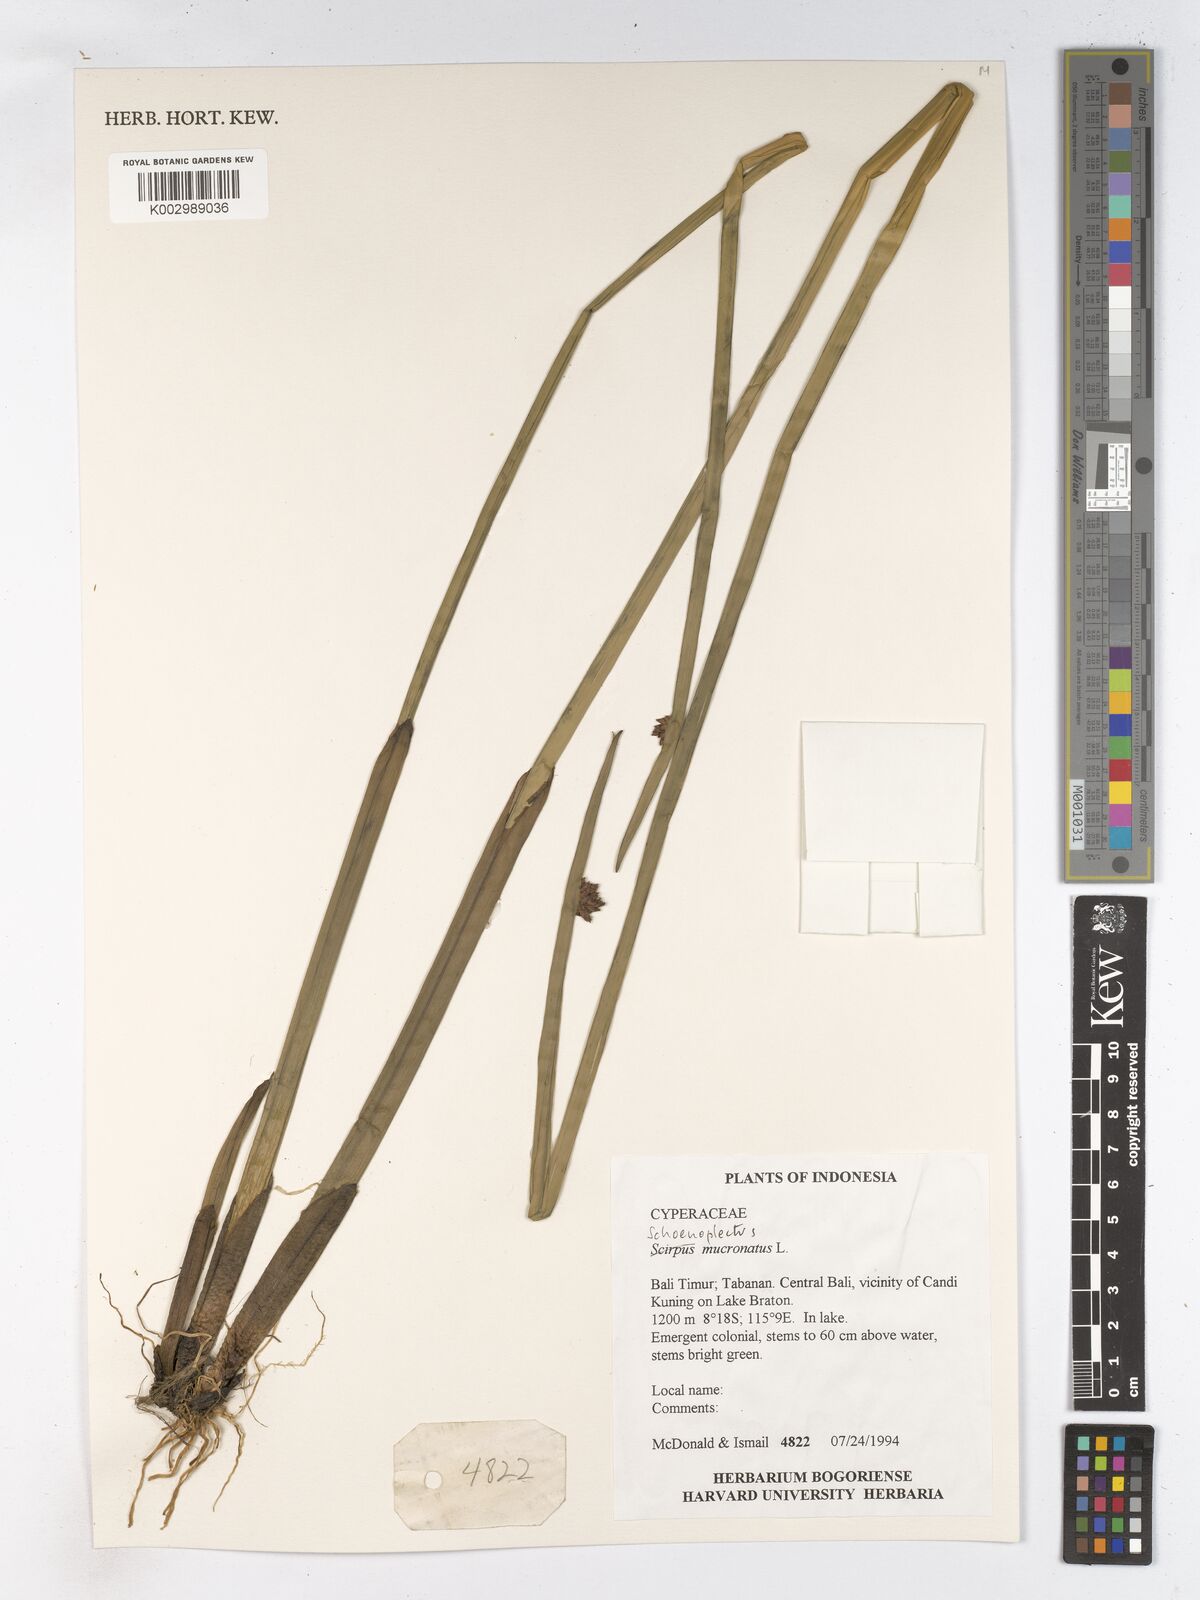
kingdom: Plantae
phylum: Tracheophyta
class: Liliopsida
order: Poales
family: Cyperaceae
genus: Schoenoplectiella
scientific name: Schoenoplectiella mucronata
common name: Bog bulrush
